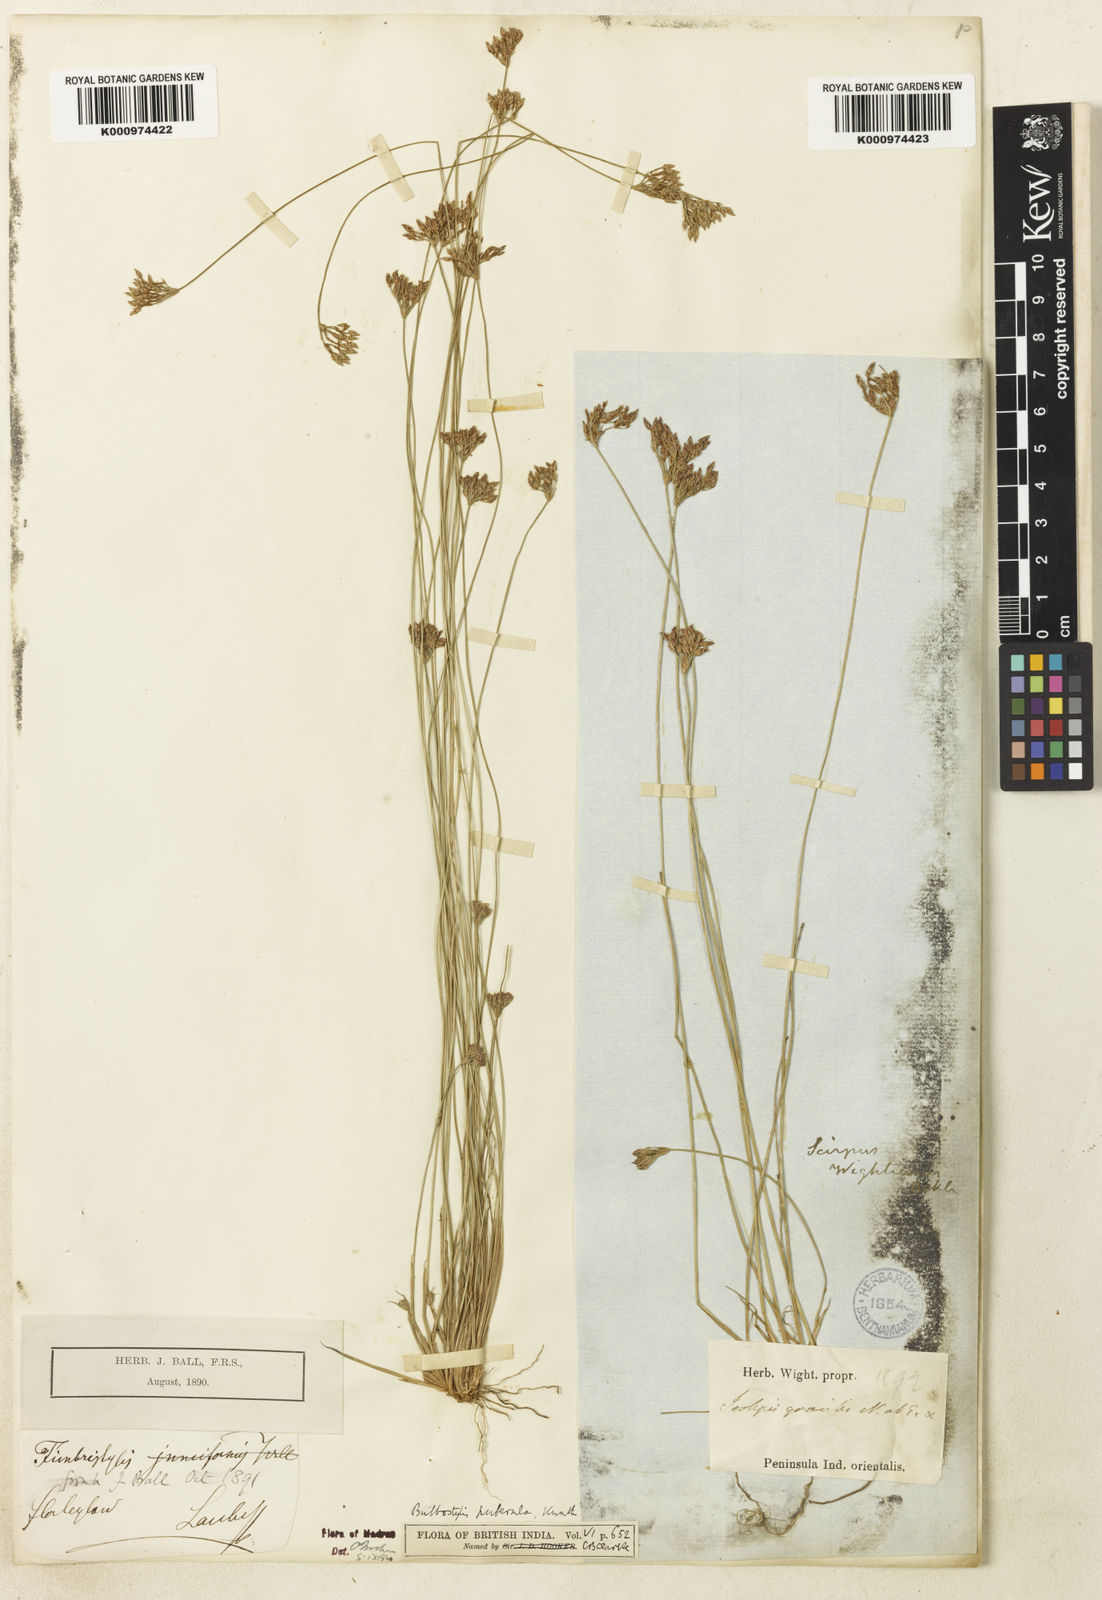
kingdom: Plantae
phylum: Tracheophyta
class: Liliopsida
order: Poales
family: Cyperaceae
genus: Bulbostylis
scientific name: Bulbostylis thouarsii
